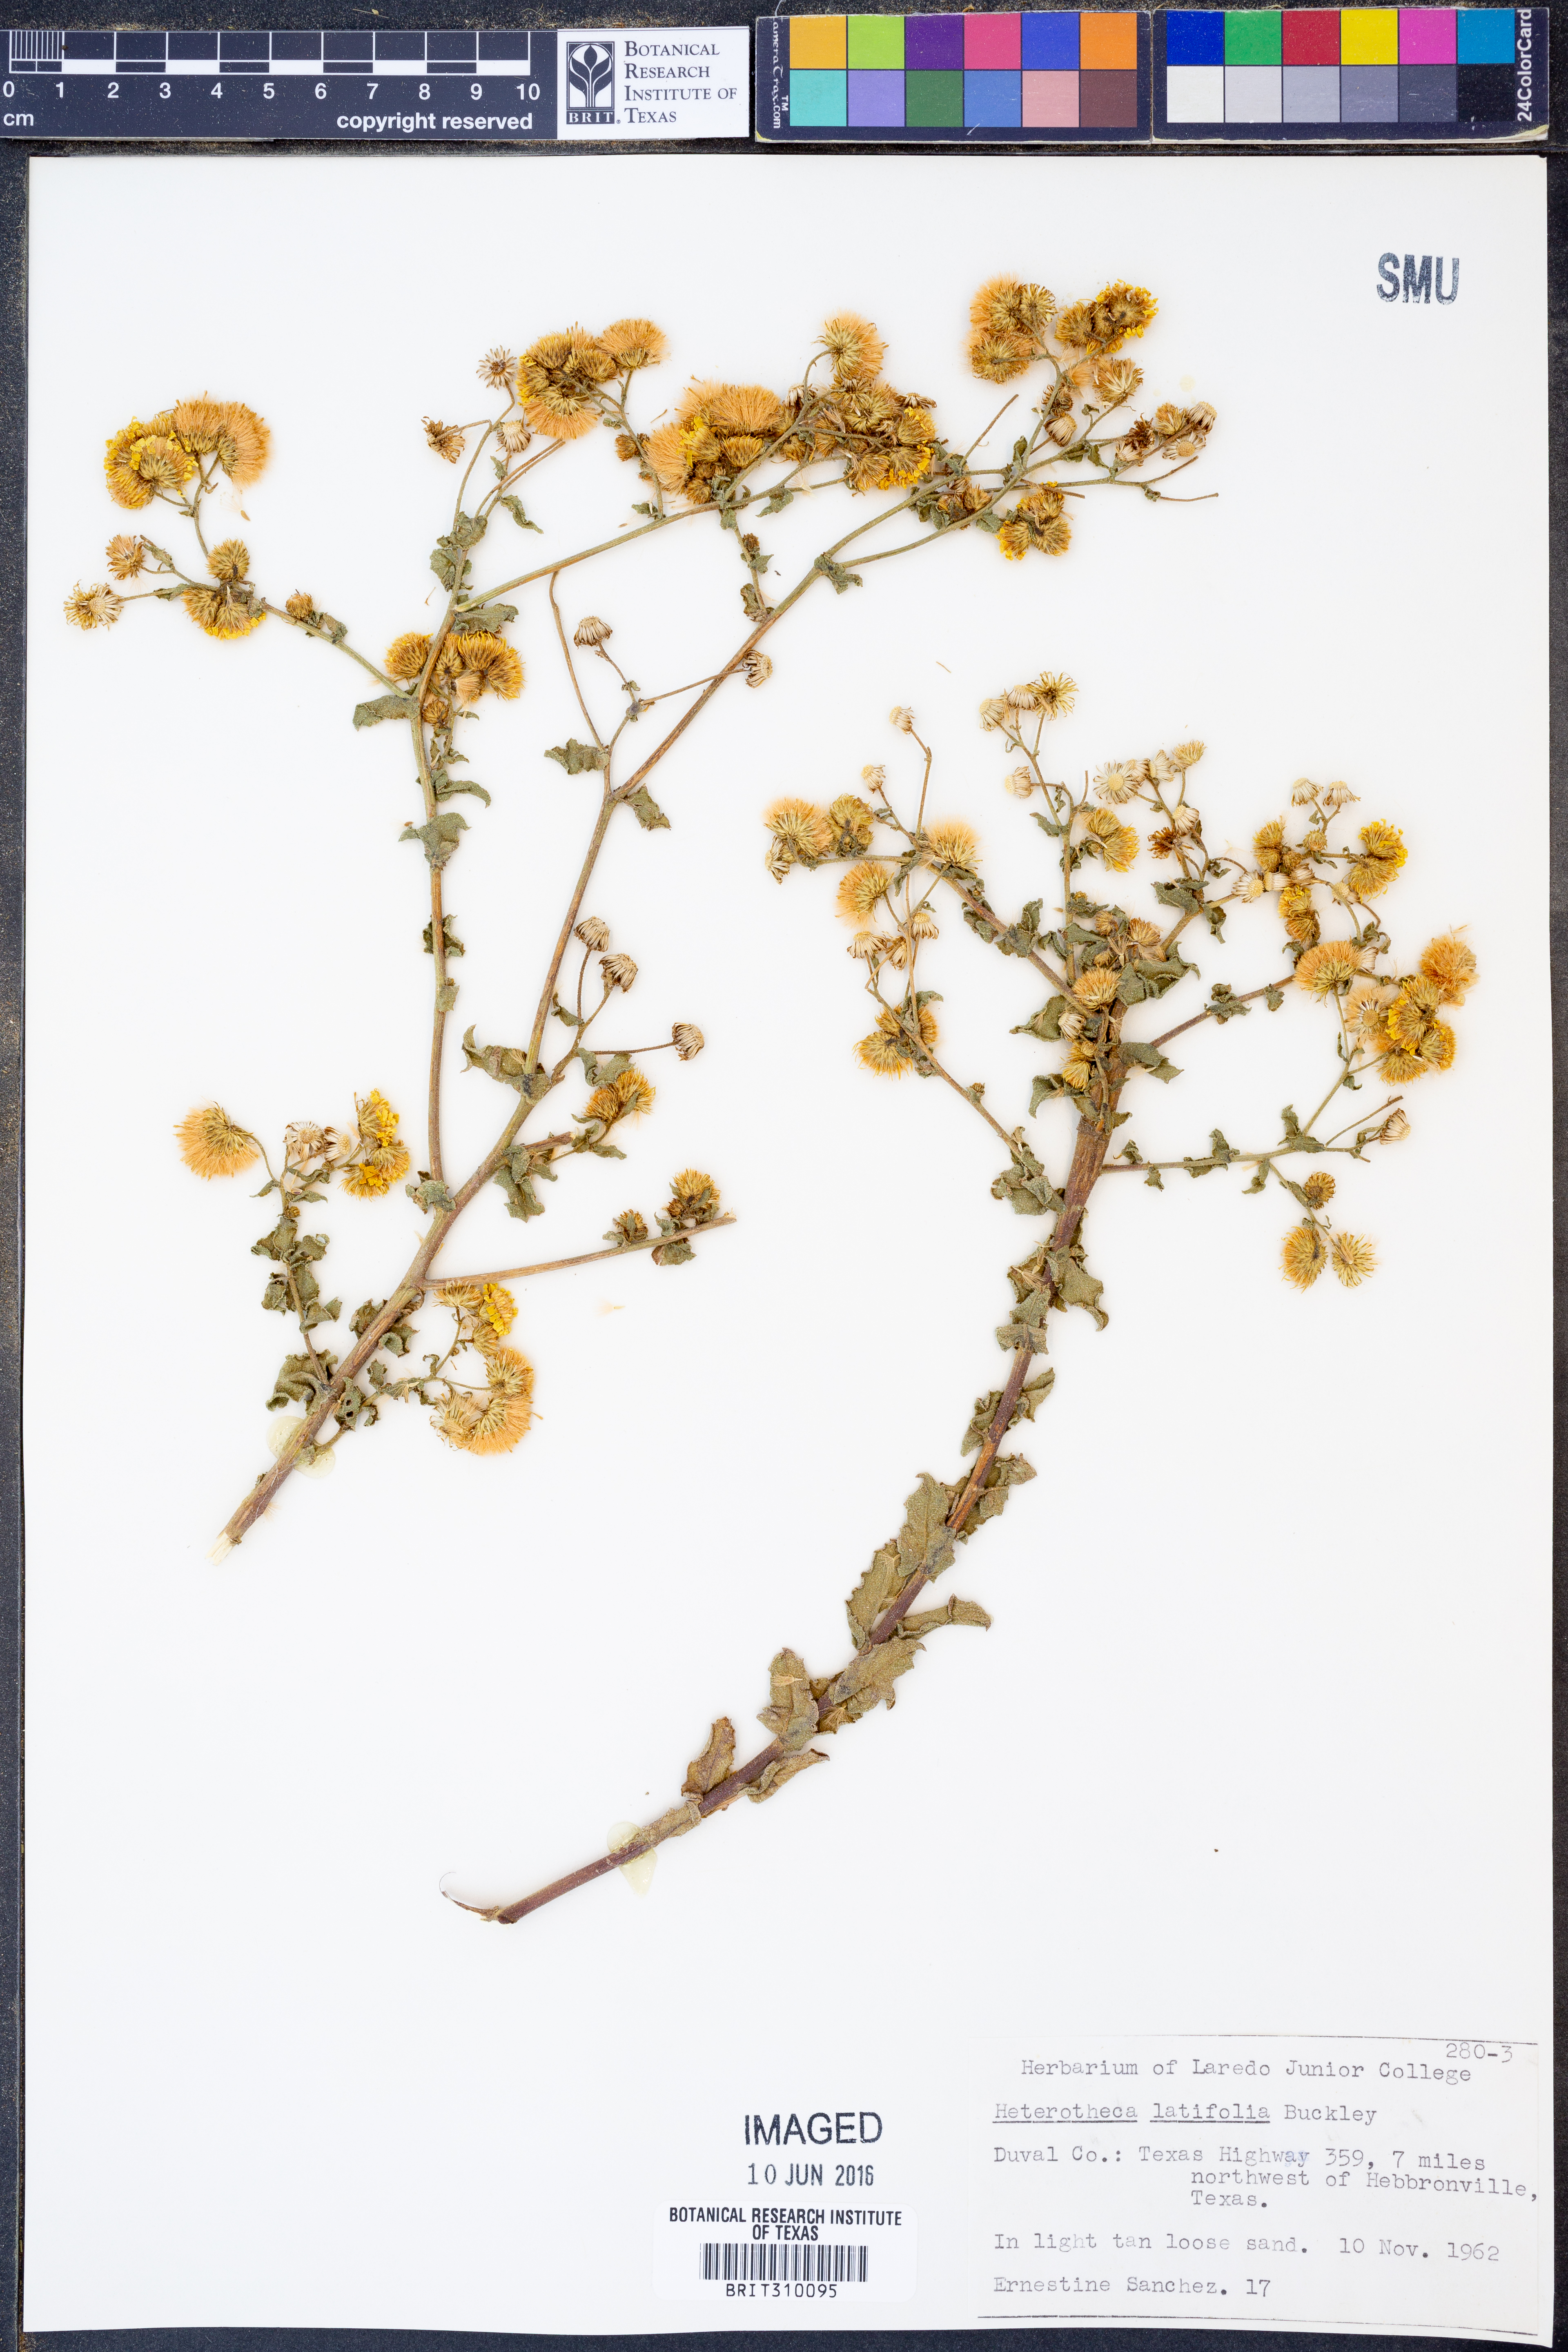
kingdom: Plantae
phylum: Tracheophyta
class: Magnoliopsida
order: Asterales
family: Asteraceae
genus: Heterotheca
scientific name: Heterotheca subaxillaris
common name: Camphorweed
